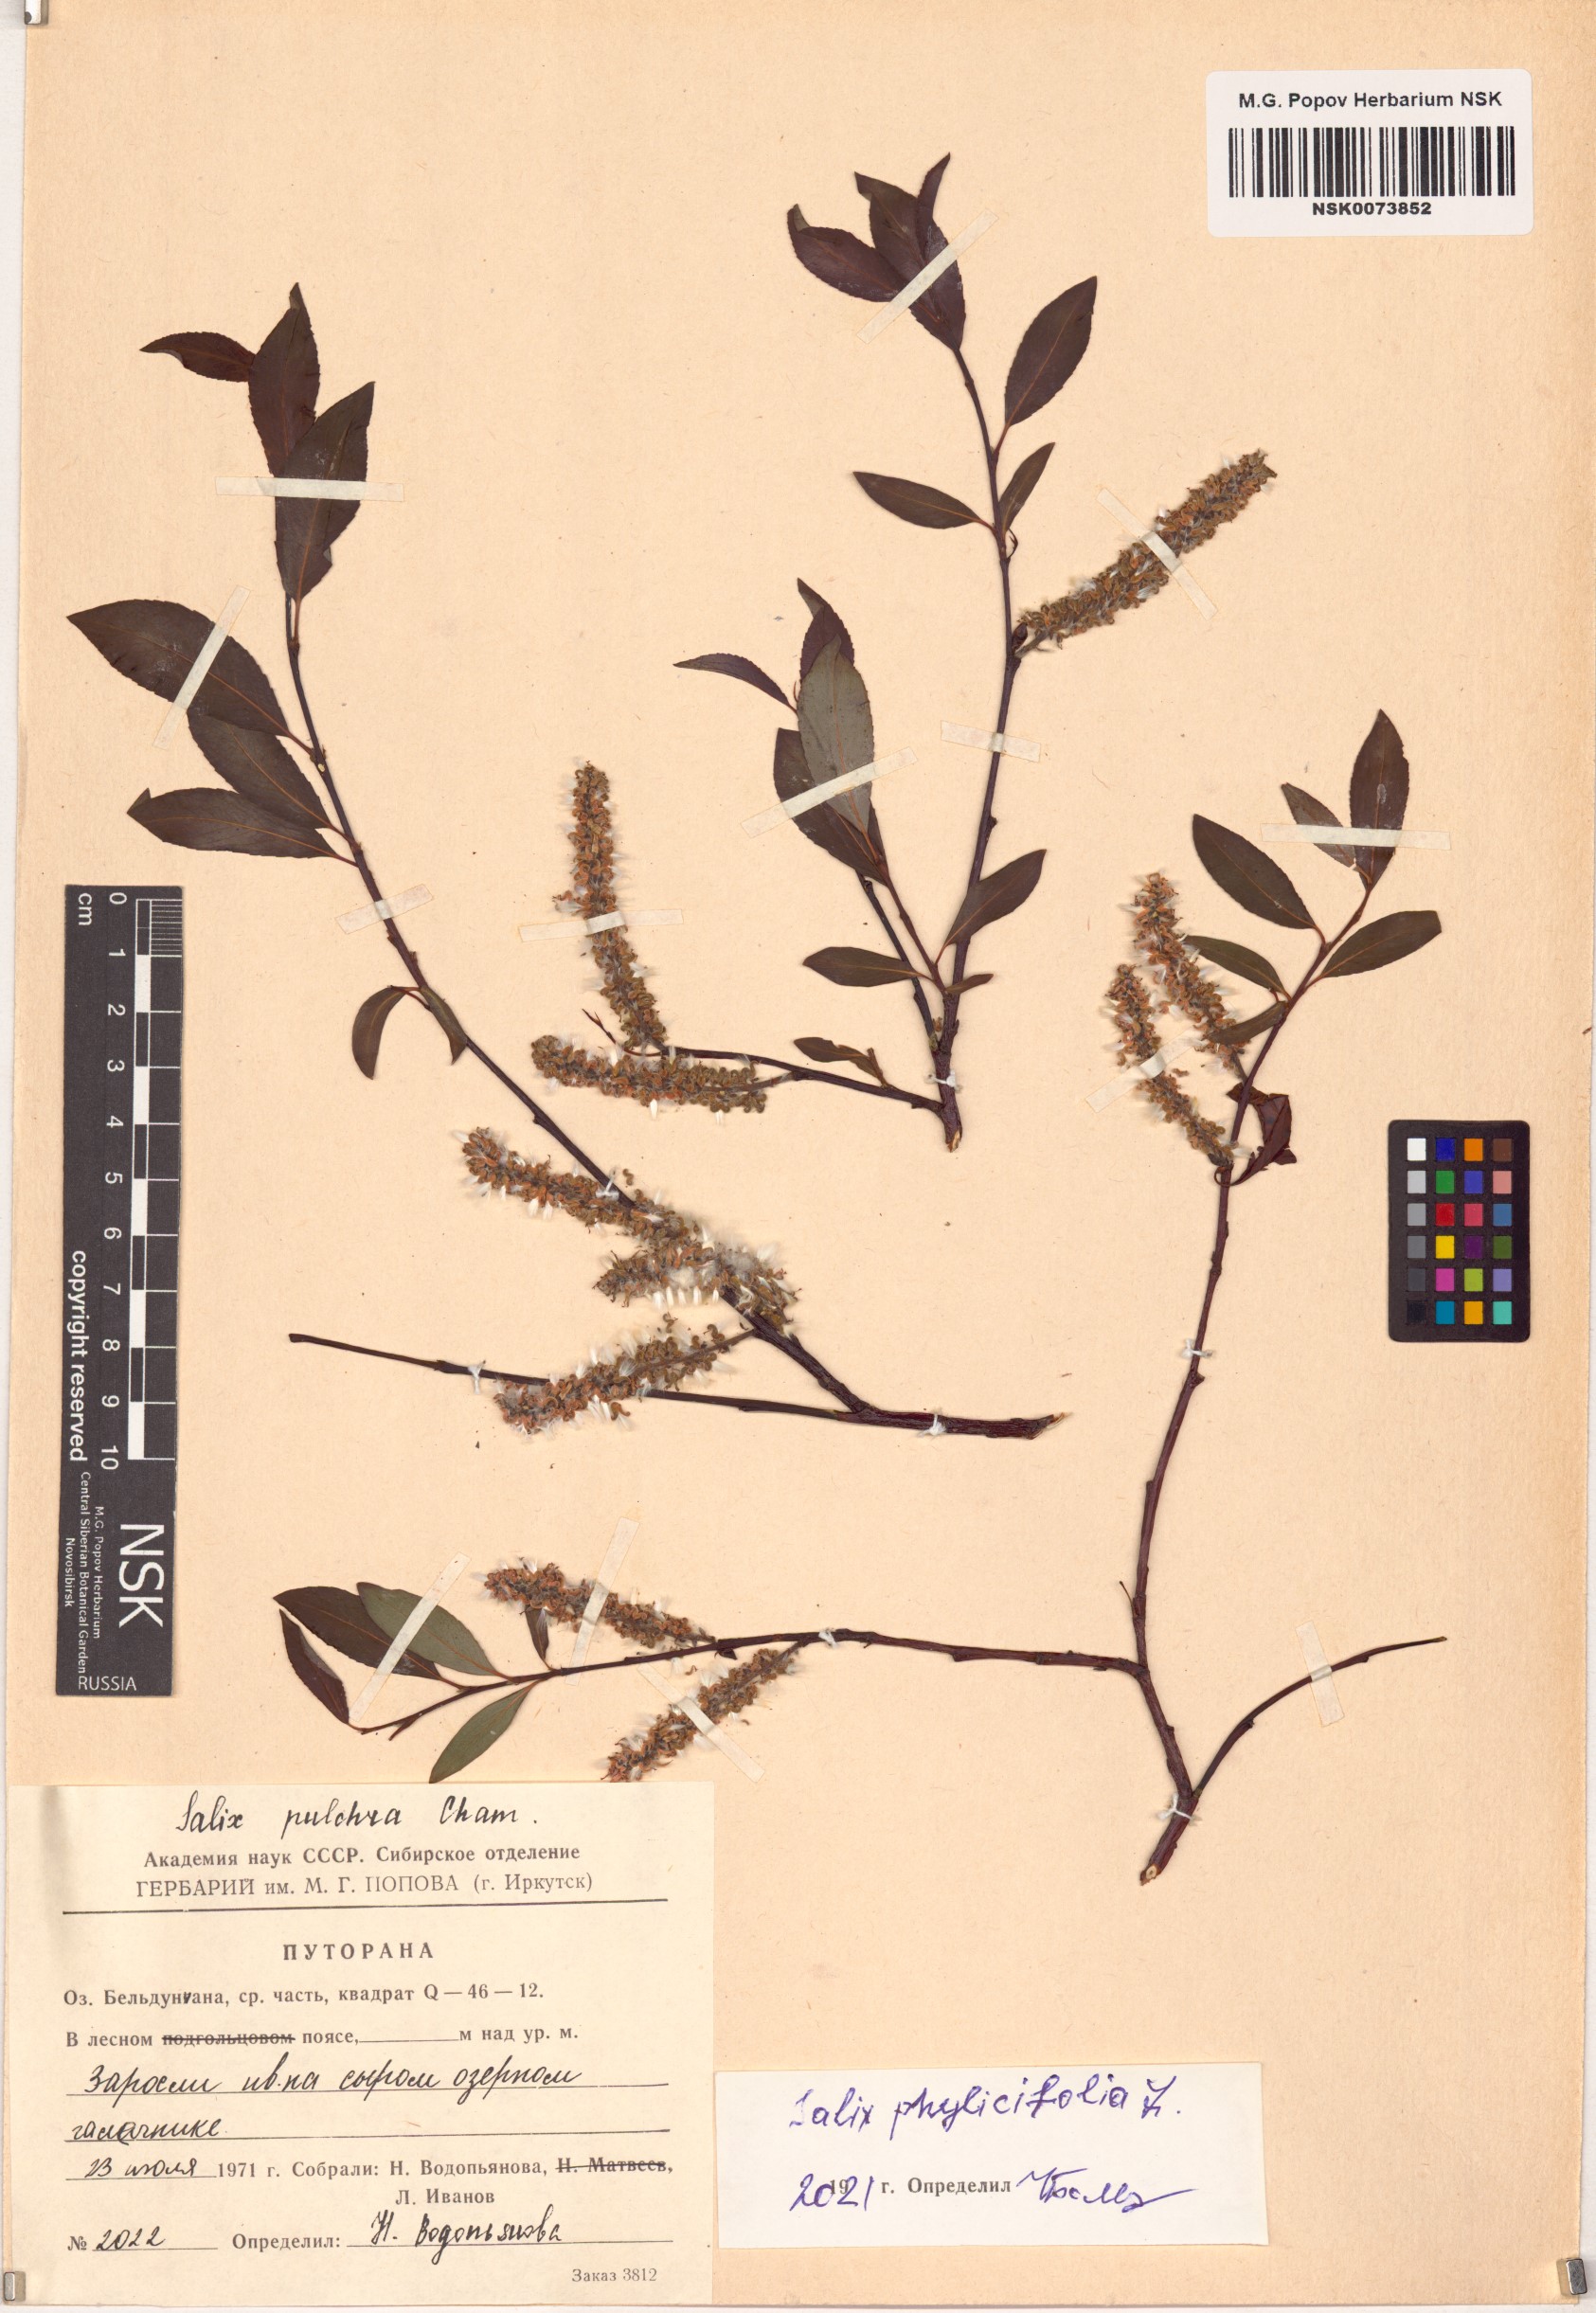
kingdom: Plantae
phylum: Tracheophyta
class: Magnoliopsida
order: Malpighiales
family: Salicaceae
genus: Salix
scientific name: Salix phylicifolia
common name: Tea-leaved willow
